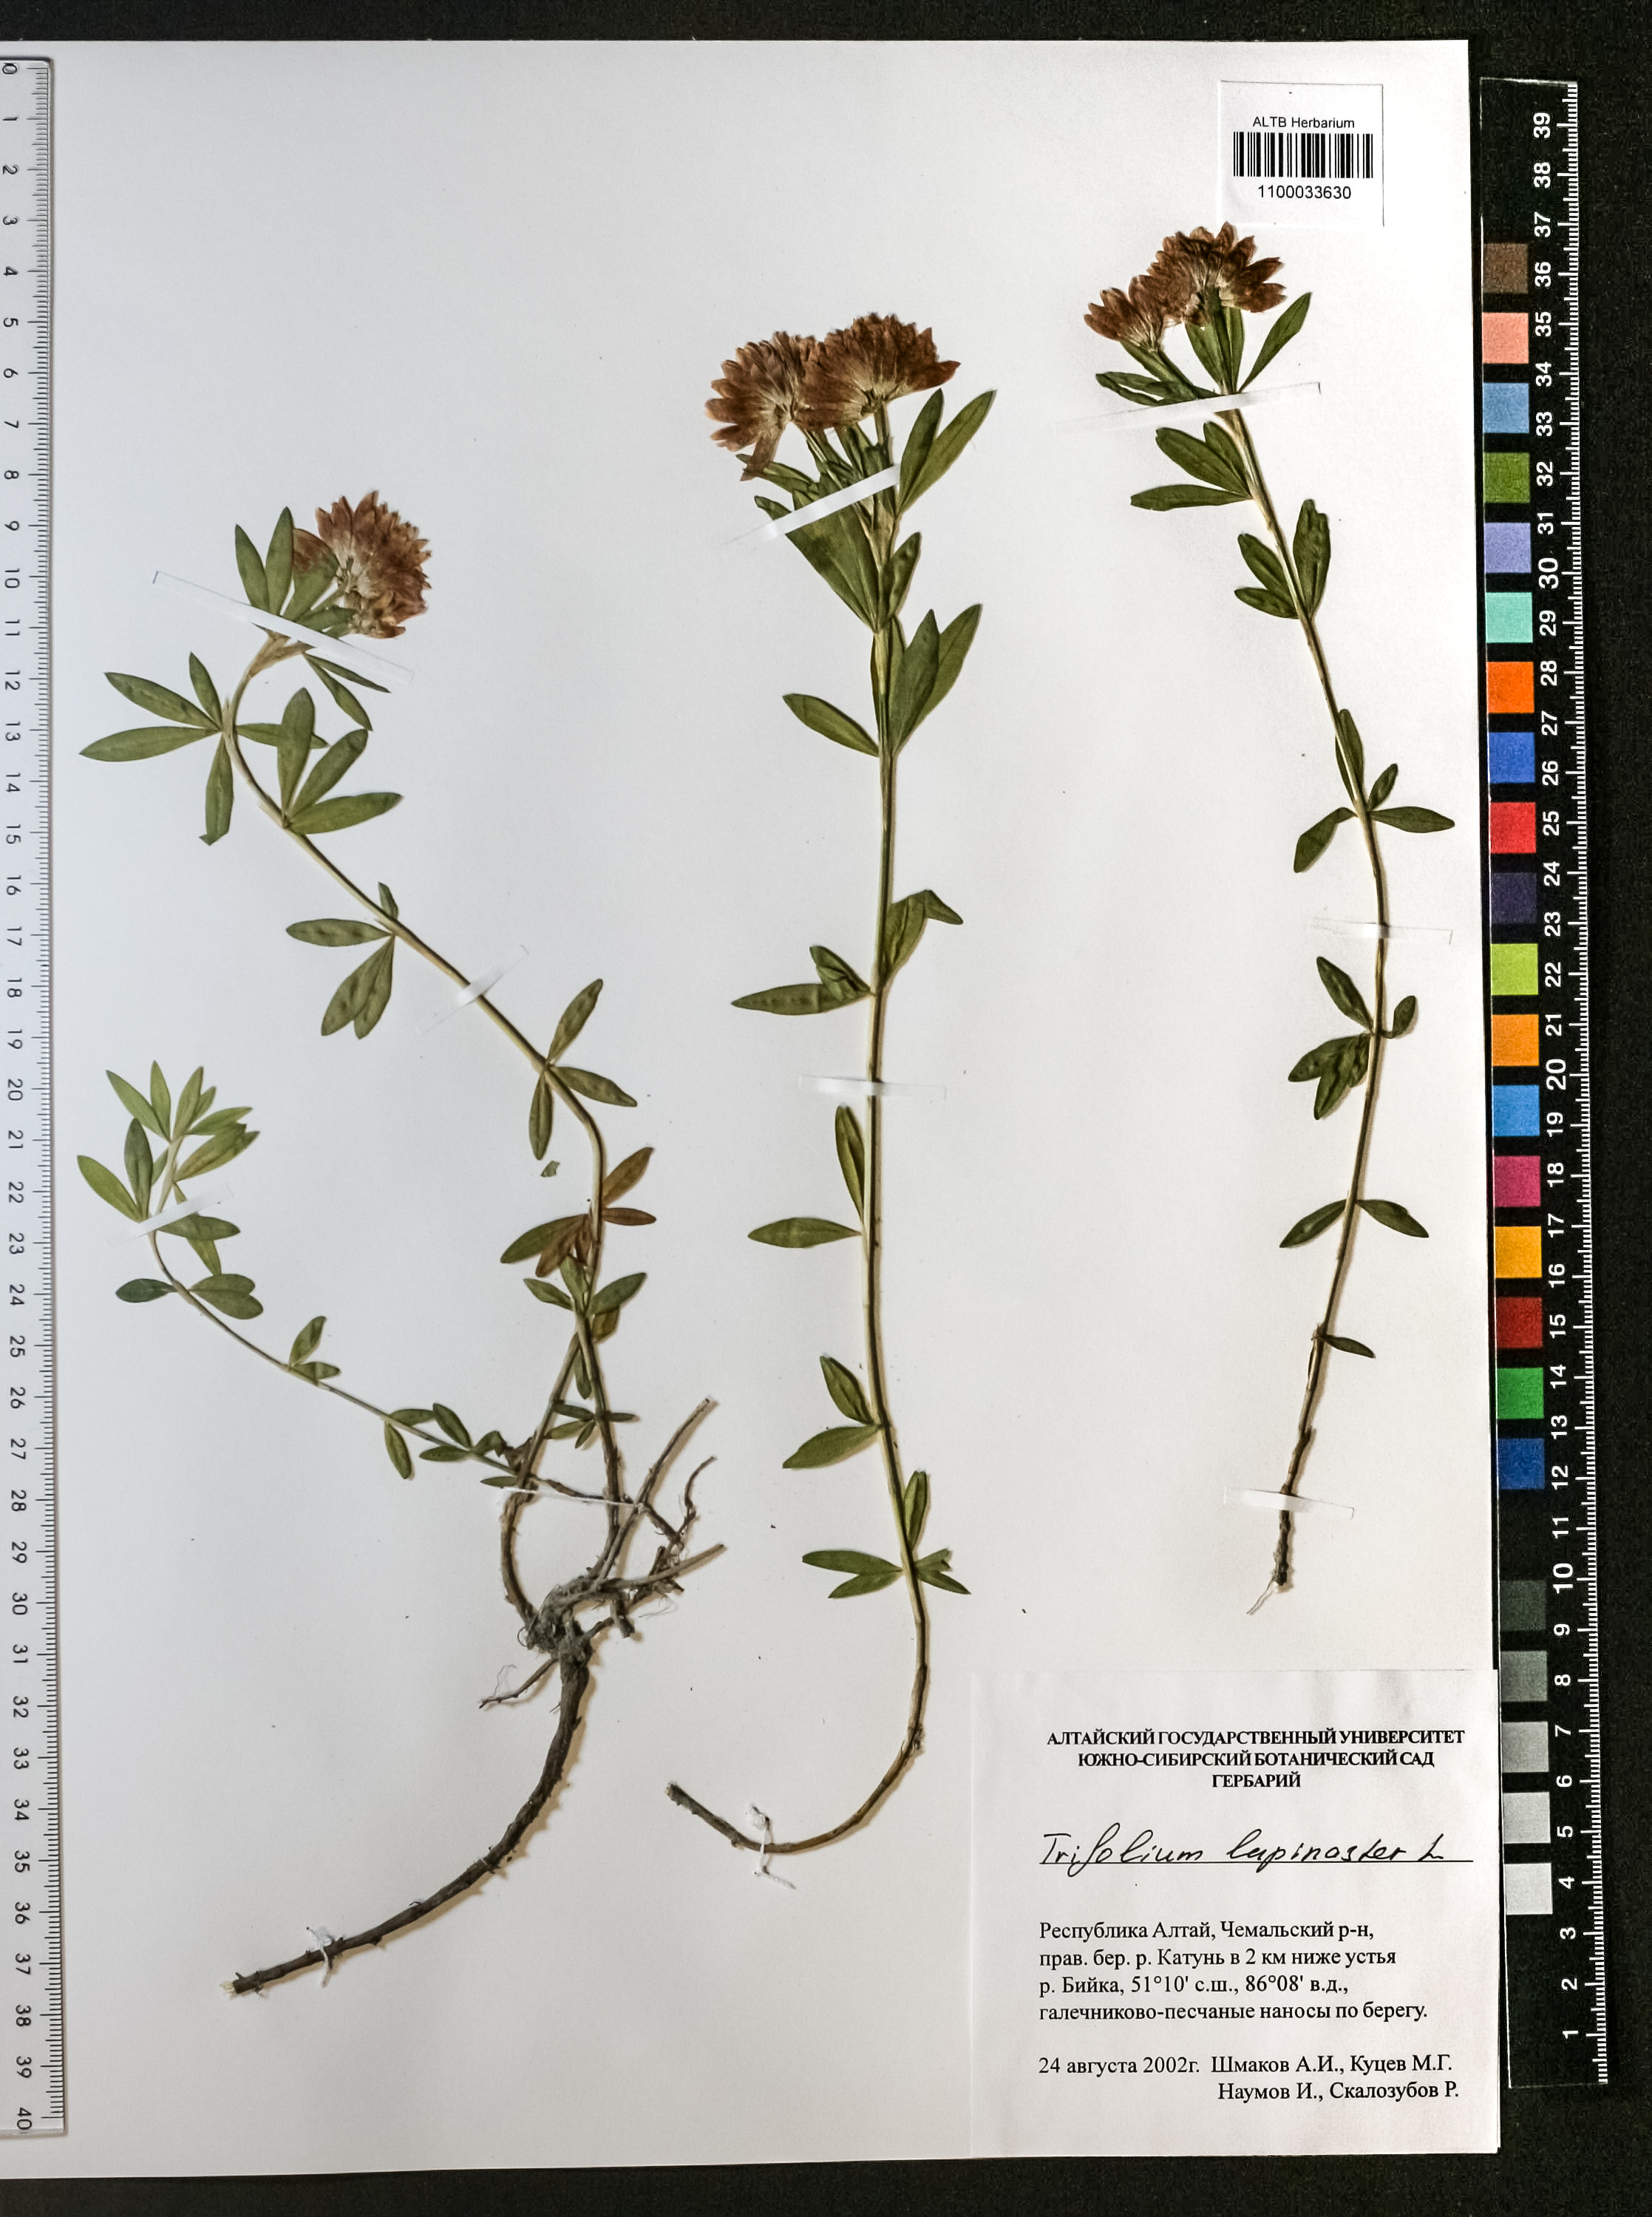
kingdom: Plantae
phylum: Tracheophyta
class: Magnoliopsida
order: Fabales
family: Fabaceae
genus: Trifolium
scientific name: Trifolium lupinaster
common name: Lupine clover
